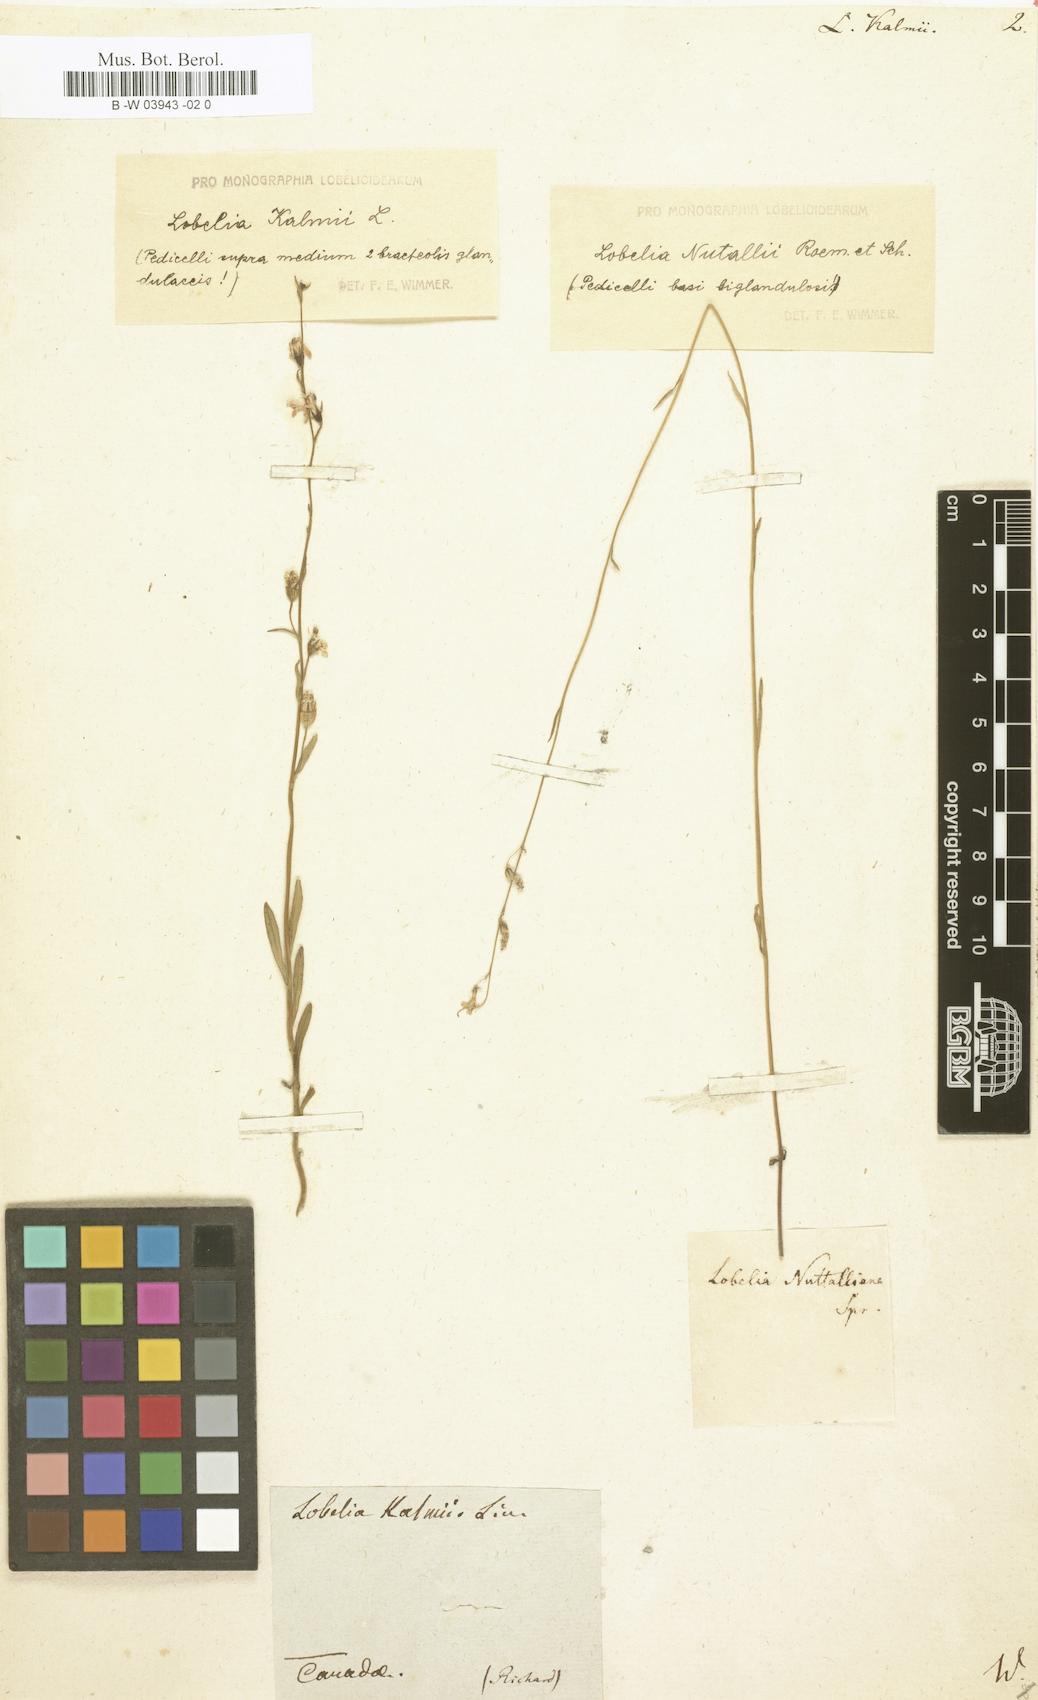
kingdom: Plantae
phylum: Tracheophyta
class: Magnoliopsida
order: Asterales
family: Campanulaceae
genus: Lobelia
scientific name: Lobelia kalmii
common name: Kalm's lobelia
